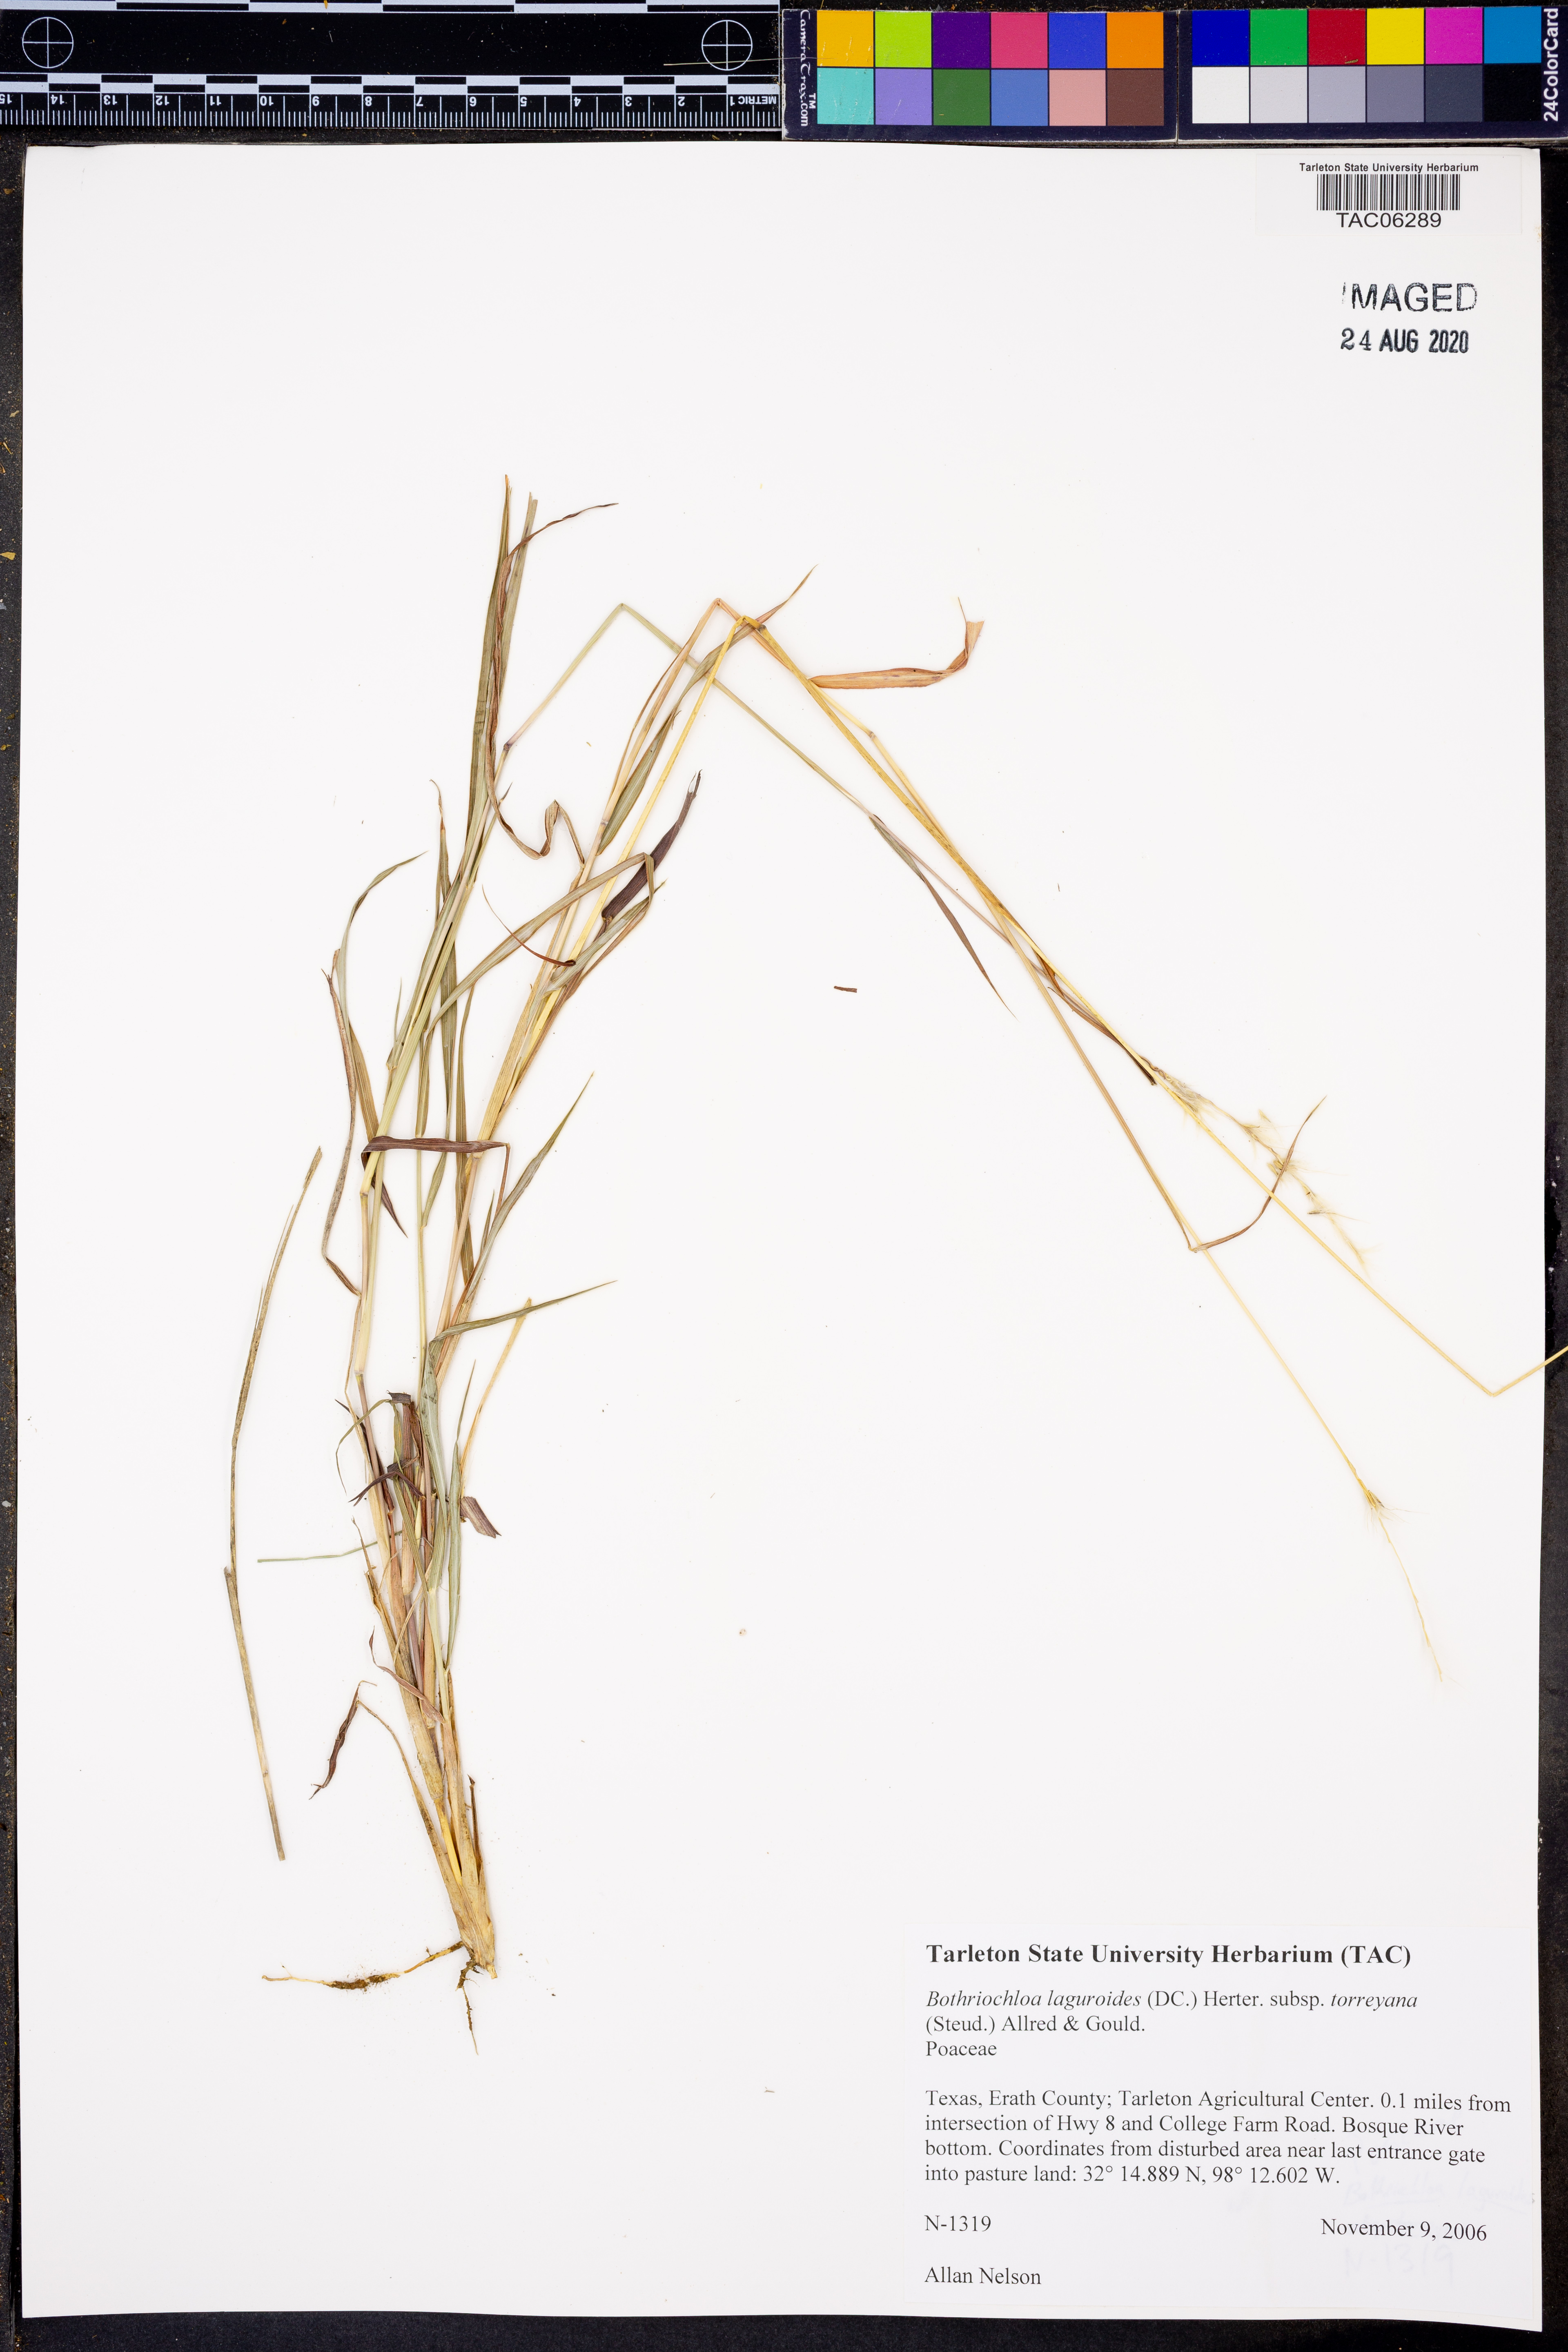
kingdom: Plantae
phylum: Tracheophyta
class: Liliopsida
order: Poales
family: Poaceae
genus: Bothriochloa
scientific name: Bothriochloa torreyana
